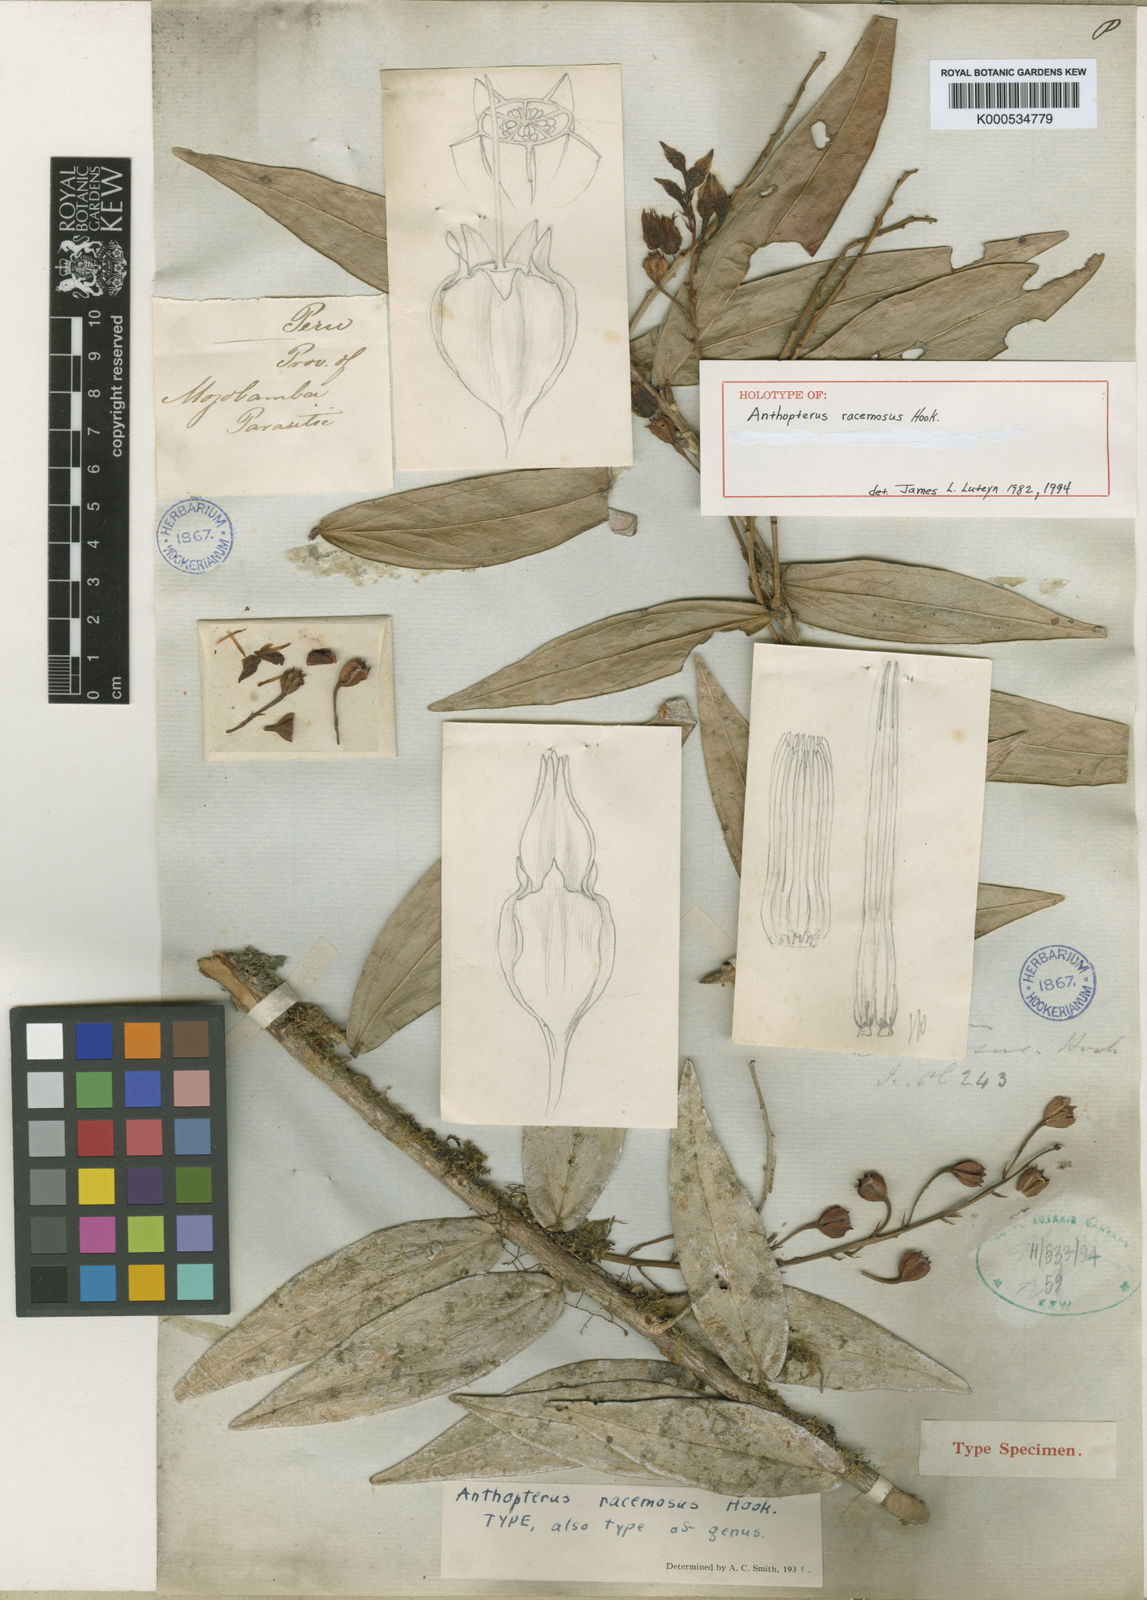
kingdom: Plantae
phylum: Tracheophyta
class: Magnoliopsida
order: Ericales
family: Ericaceae
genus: Anthopterus
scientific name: Anthopterus racemosus
